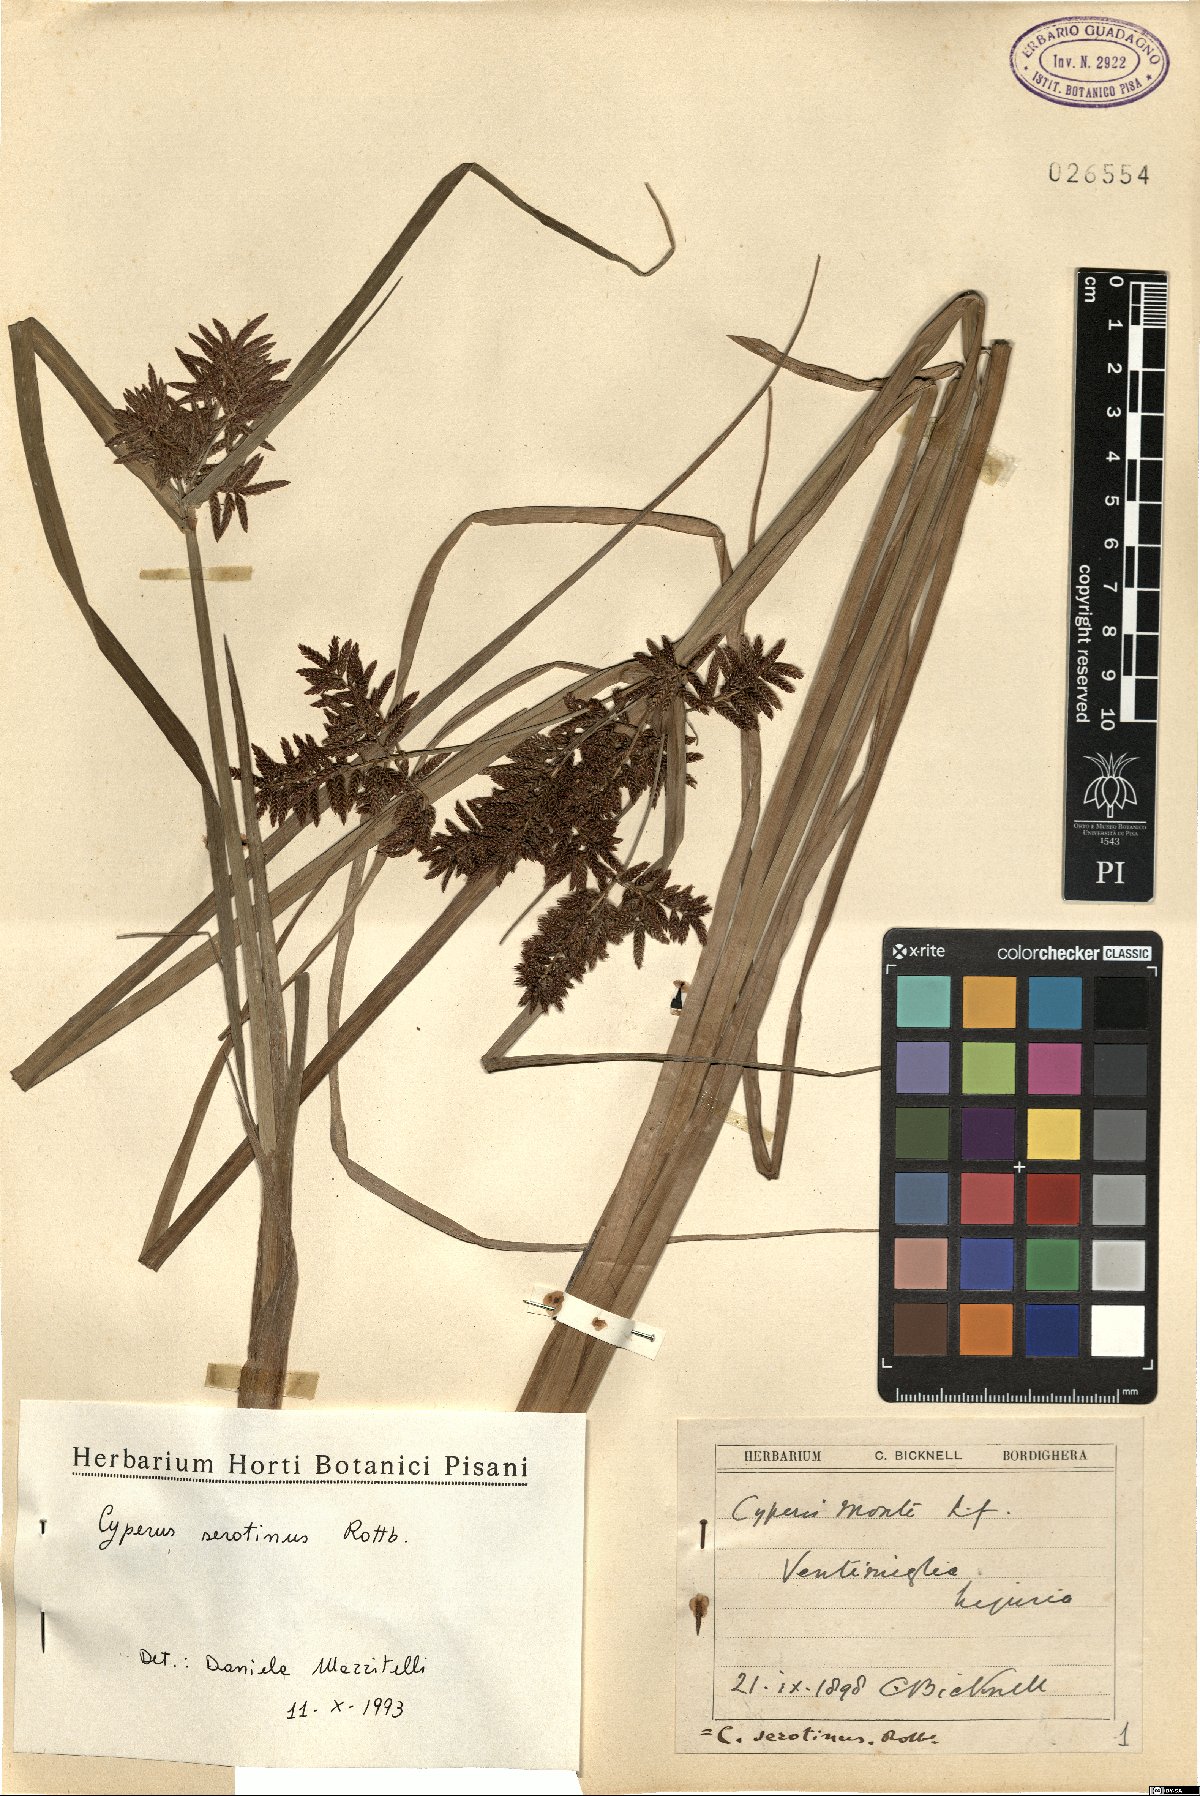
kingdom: Plantae
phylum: Tracheophyta
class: Liliopsida
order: Poales
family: Cyperaceae
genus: Cyperus
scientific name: Cyperus serotinus
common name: Tidalmarsh flatsedge
